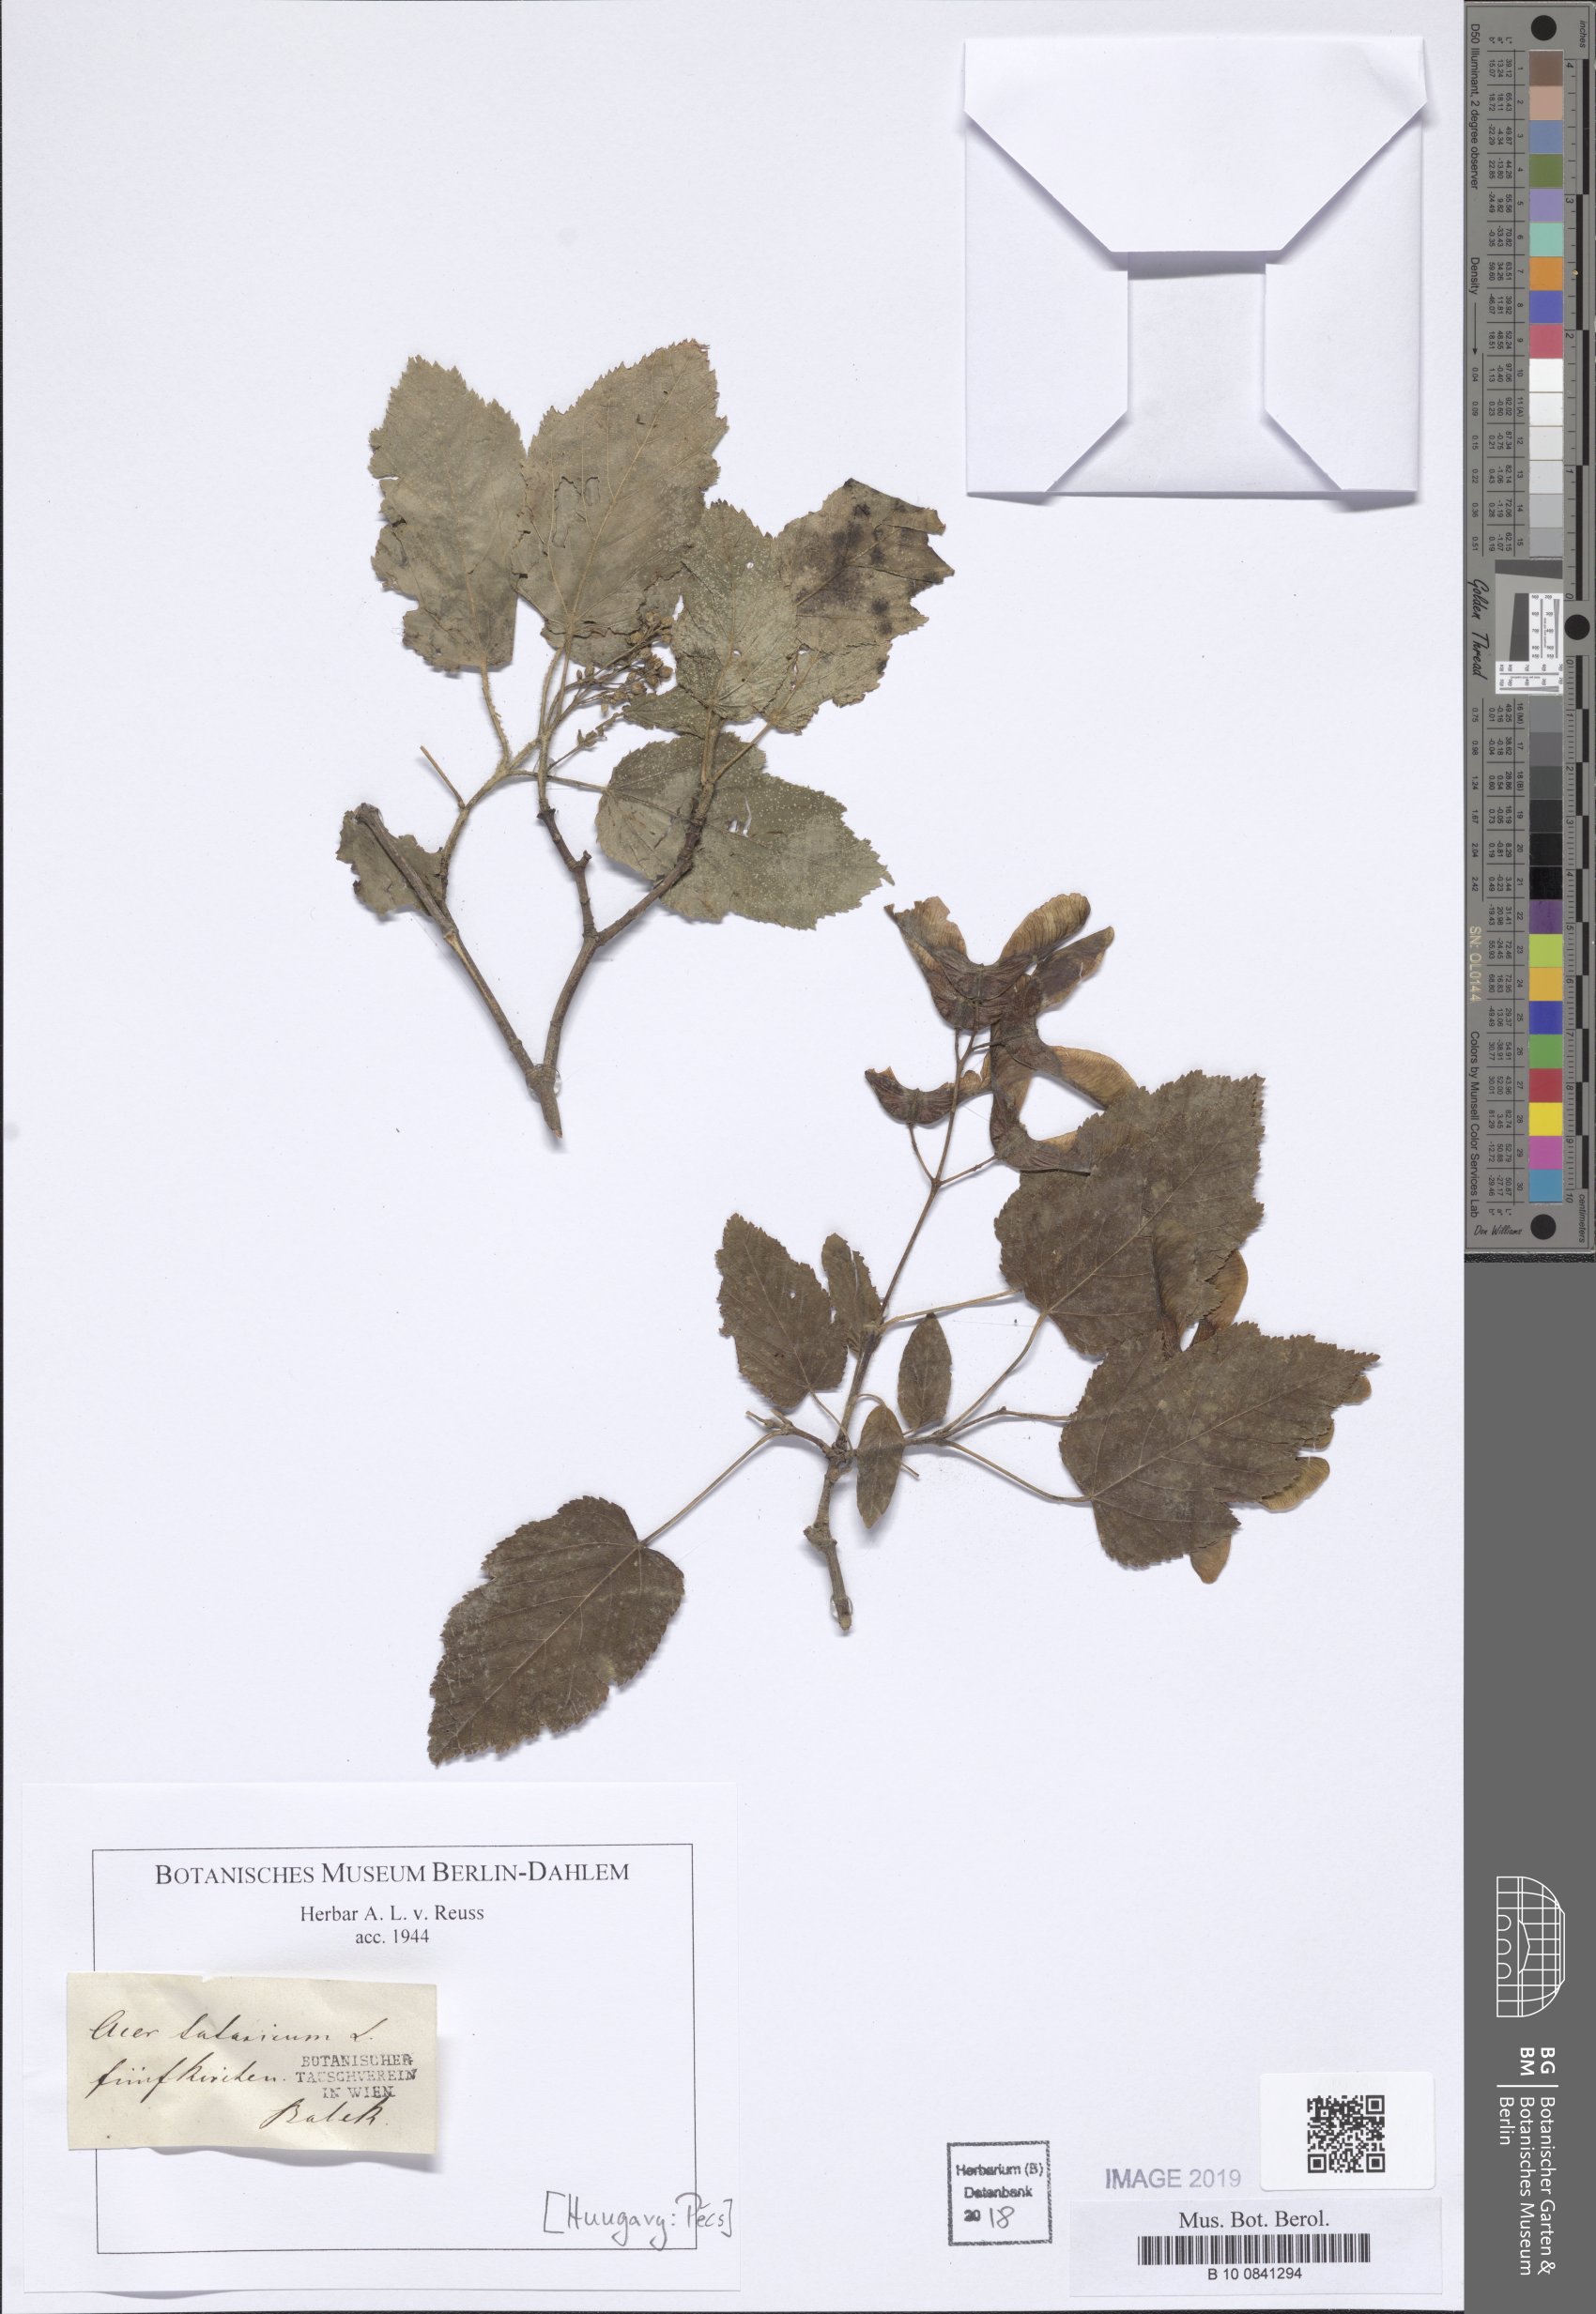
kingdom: Plantae
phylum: Tracheophyta
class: Magnoliopsida
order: Sapindales
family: Sapindaceae
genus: Acer
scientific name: Acer tataricum
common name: Tartar maple
